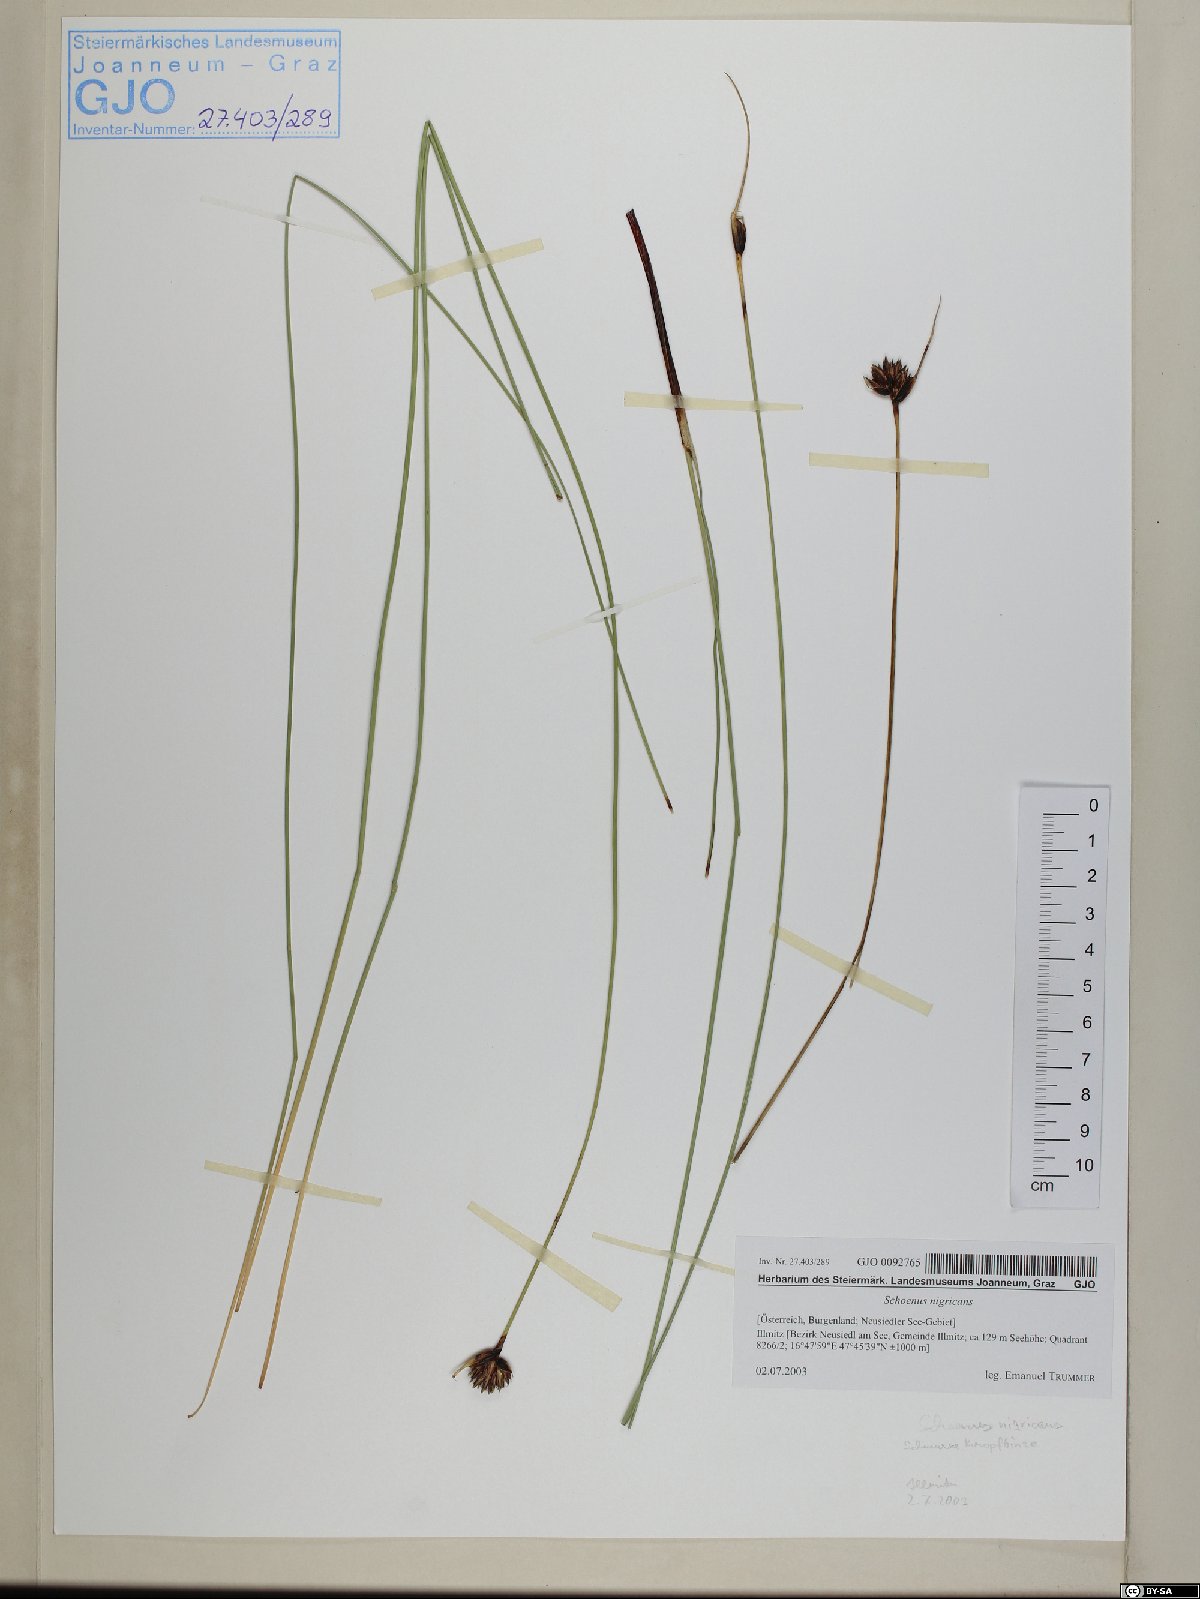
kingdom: Plantae
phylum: Tracheophyta
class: Liliopsida
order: Poales
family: Cyperaceae
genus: Schoenus
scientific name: Schoenus nigricans
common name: Black bog-rush
